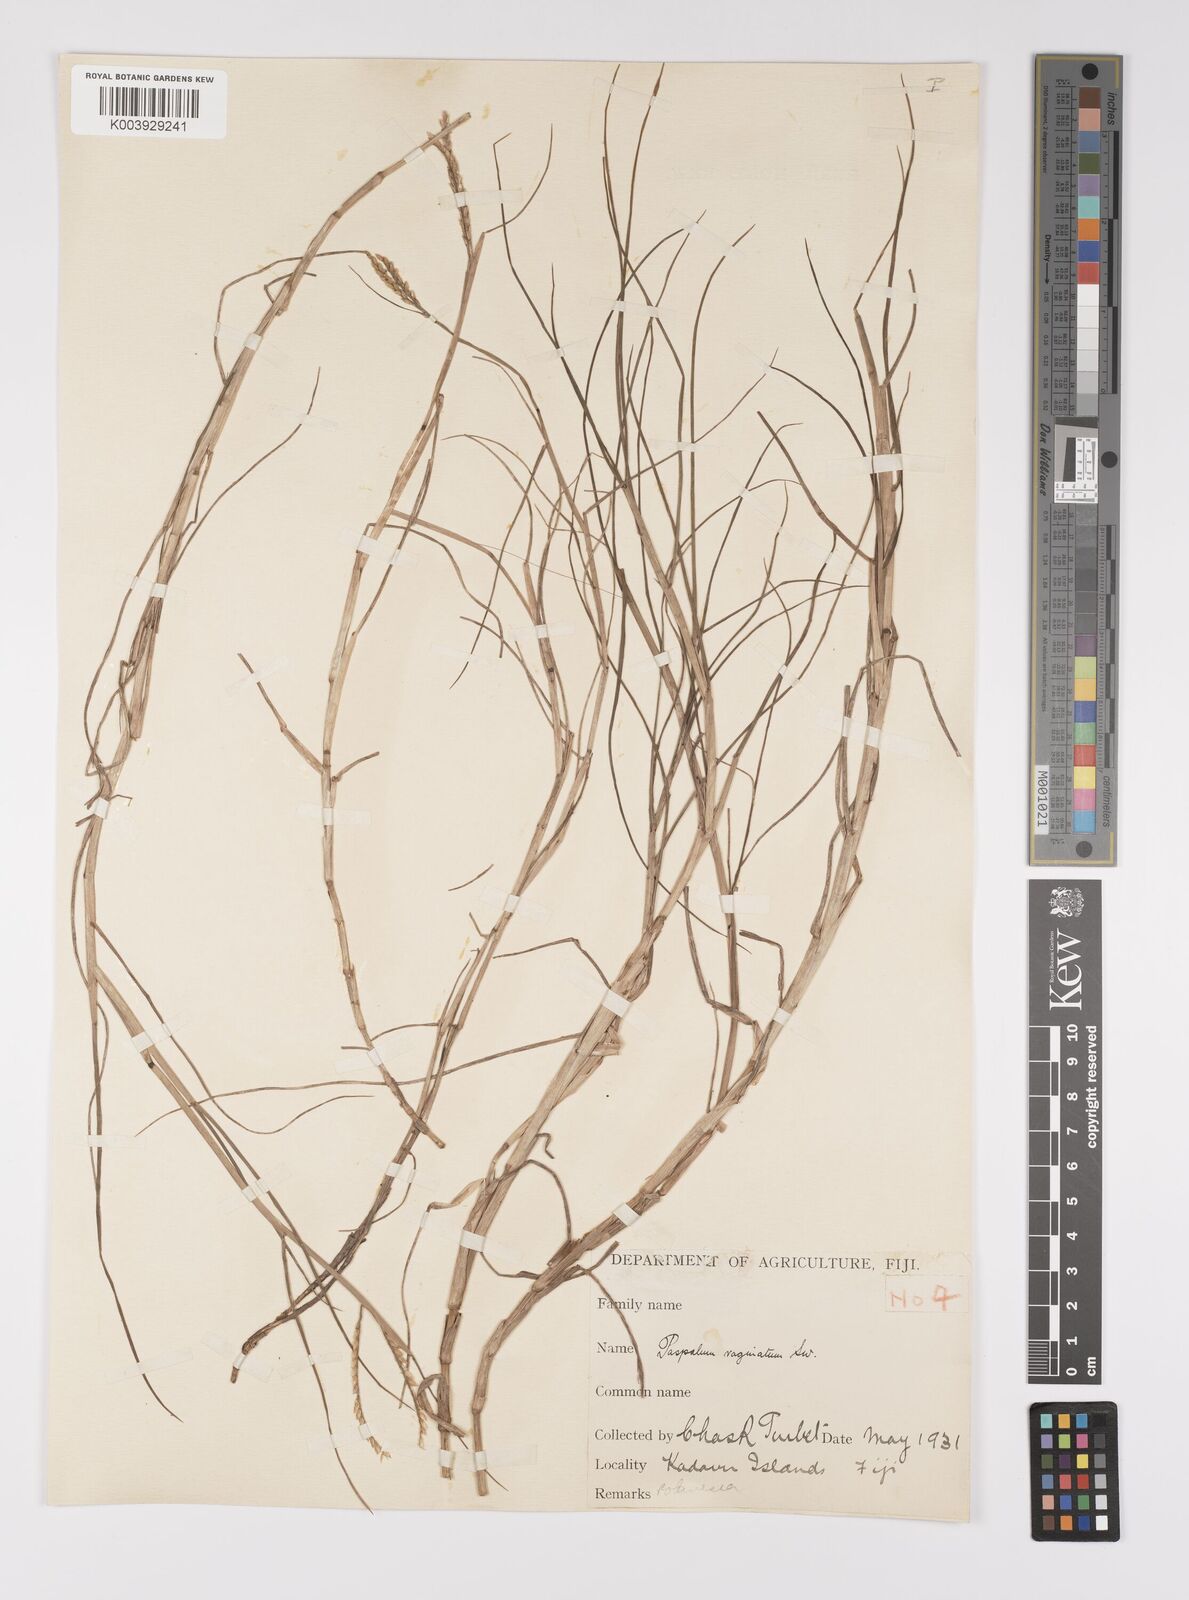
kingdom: Plantae
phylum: Tracheophyta
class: Liliopsida
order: Poales
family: Poaceae
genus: Paspalum
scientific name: Paspalum vaginatum
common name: Seashore paspalum
